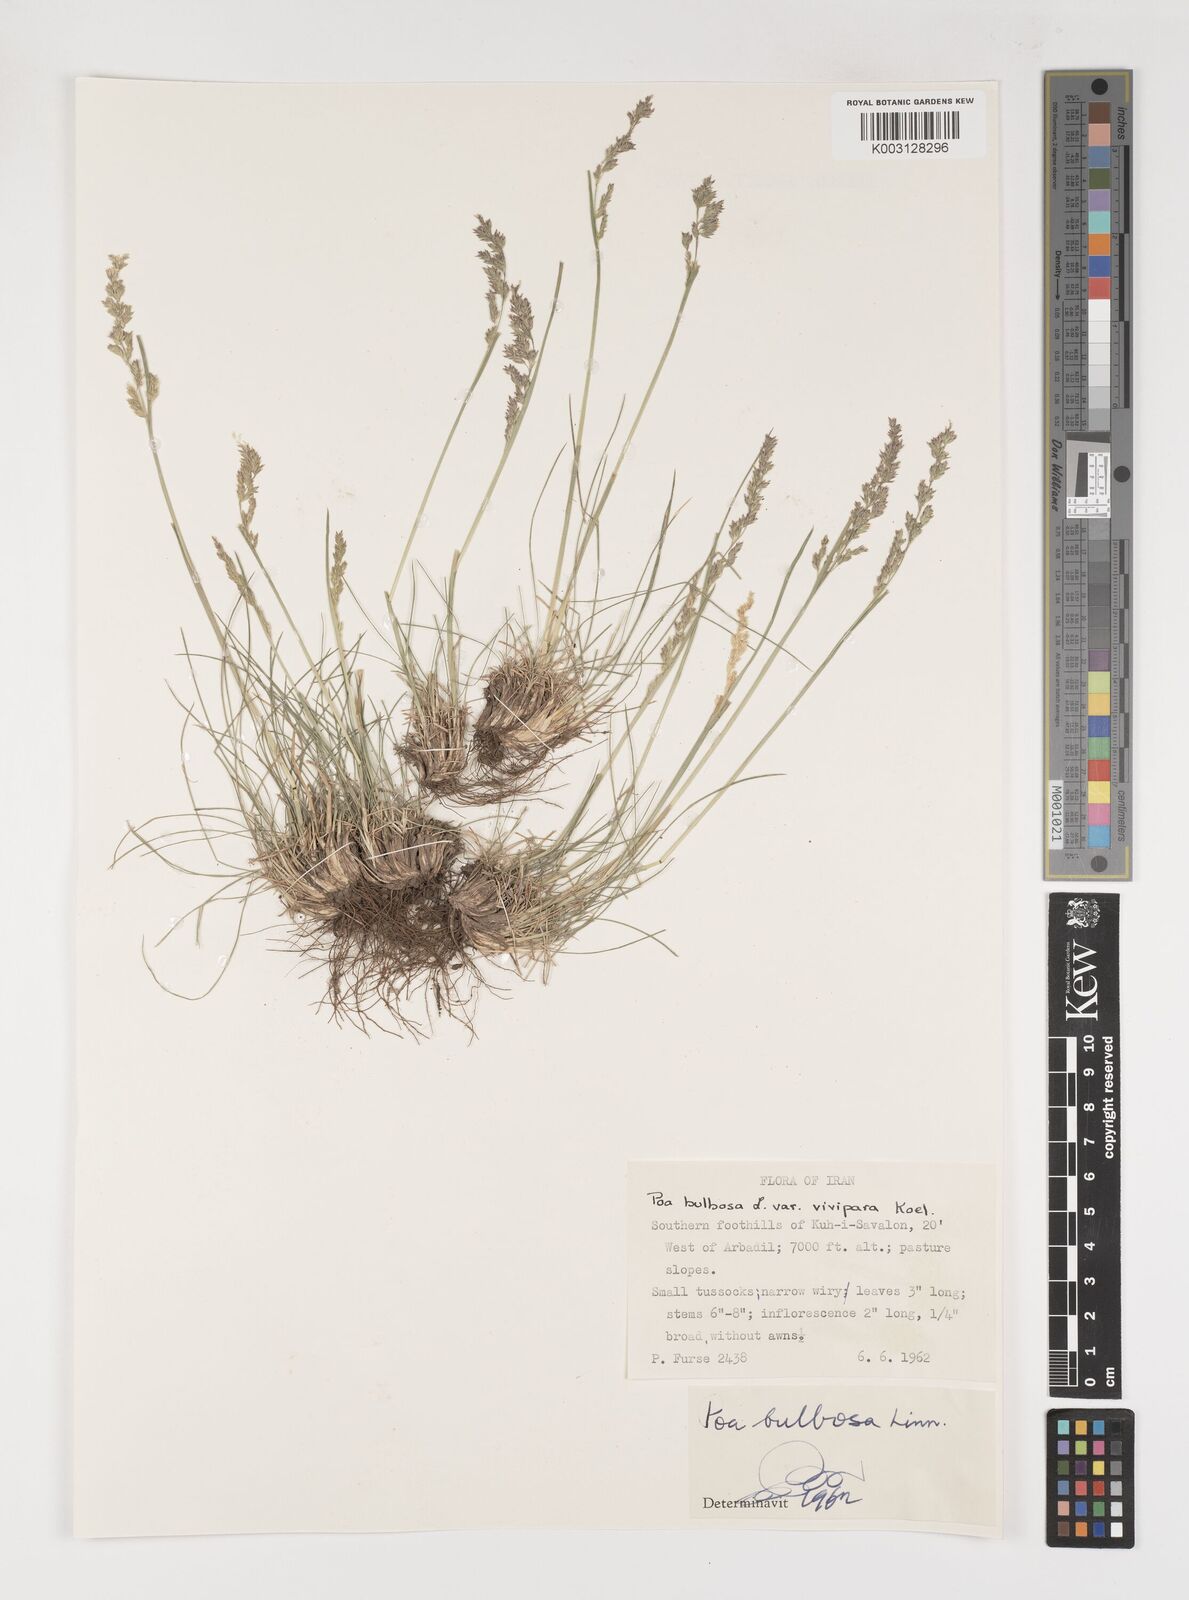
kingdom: Plantae
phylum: Tracheophyta
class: Liliopsida
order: Poales
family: Poaceae
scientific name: Poaceae
